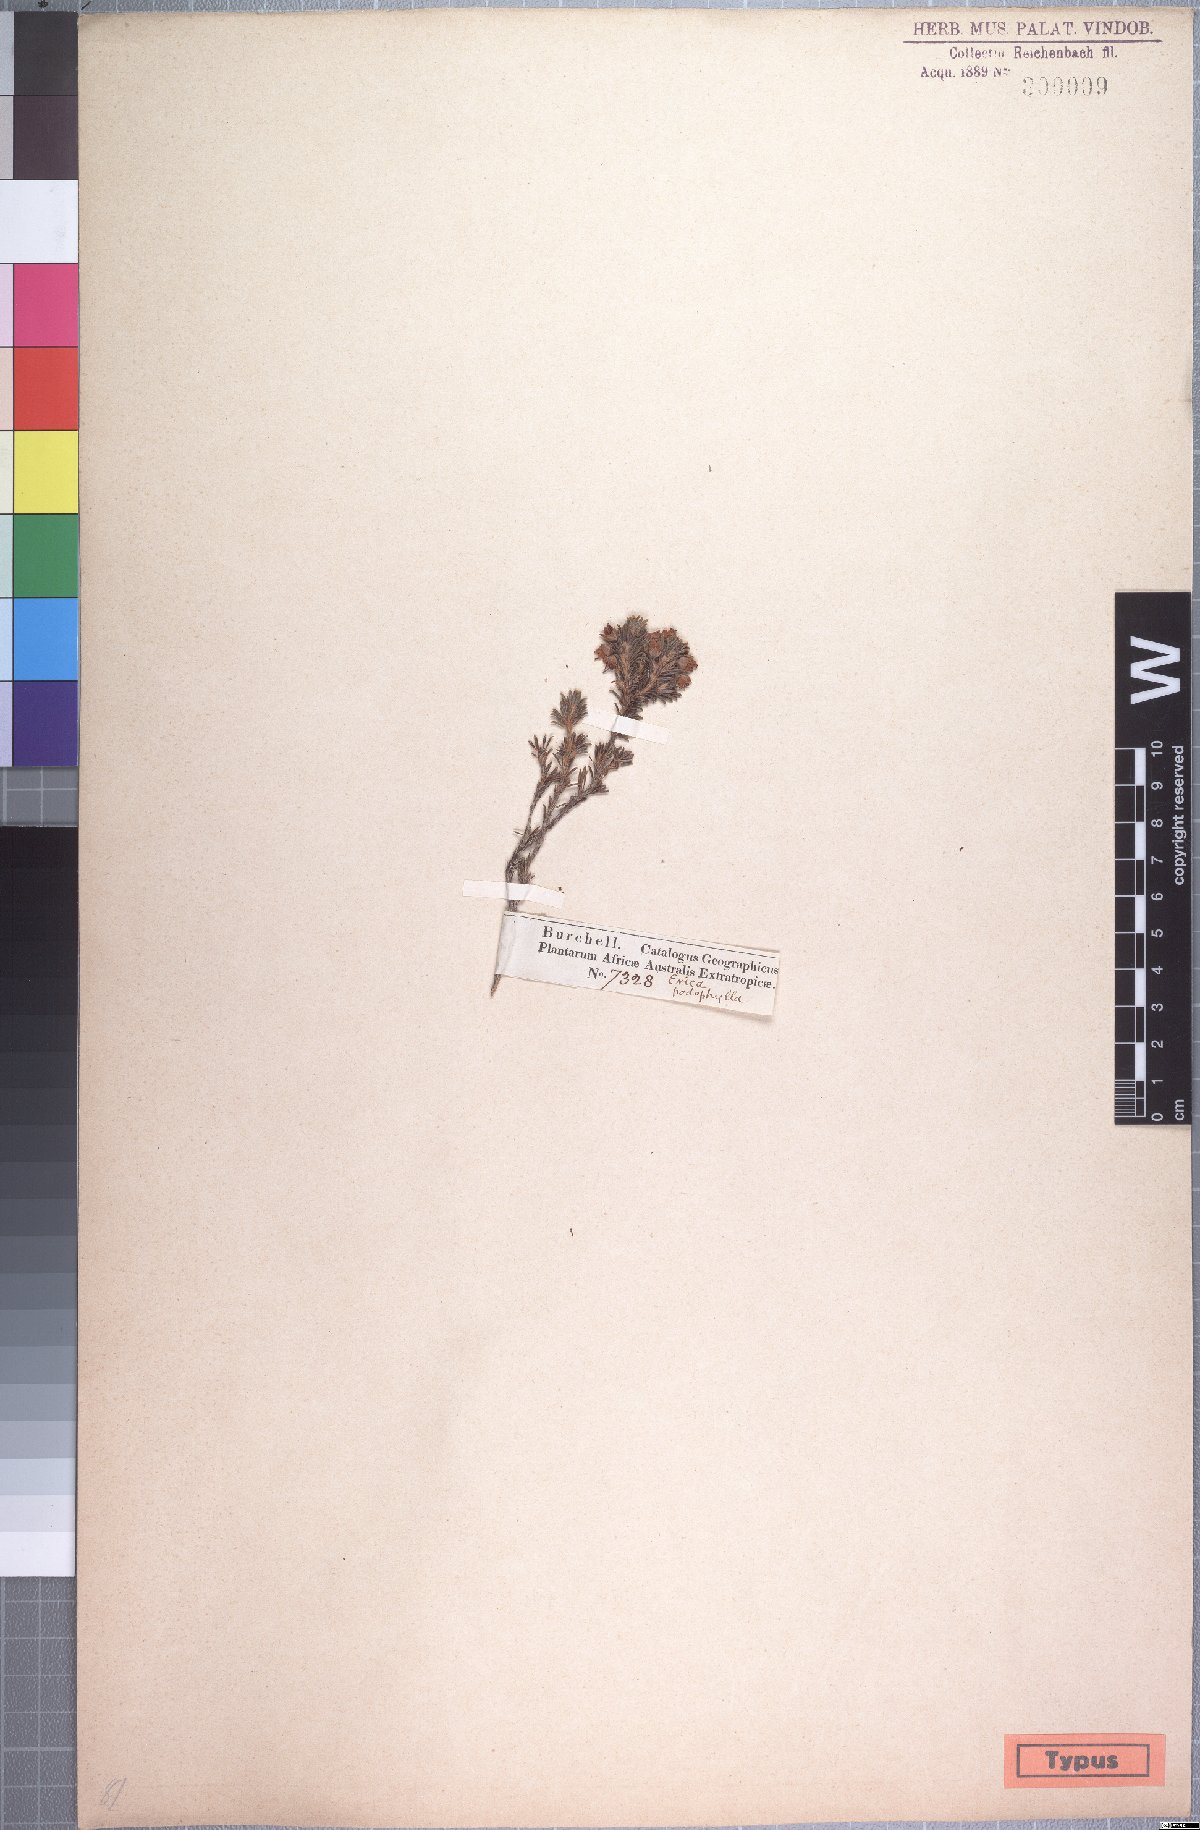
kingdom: Plantae
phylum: Tracheophyta
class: Magnoliopsida
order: Ericales
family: Ericaceae
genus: Erica
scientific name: Erica podophylla
